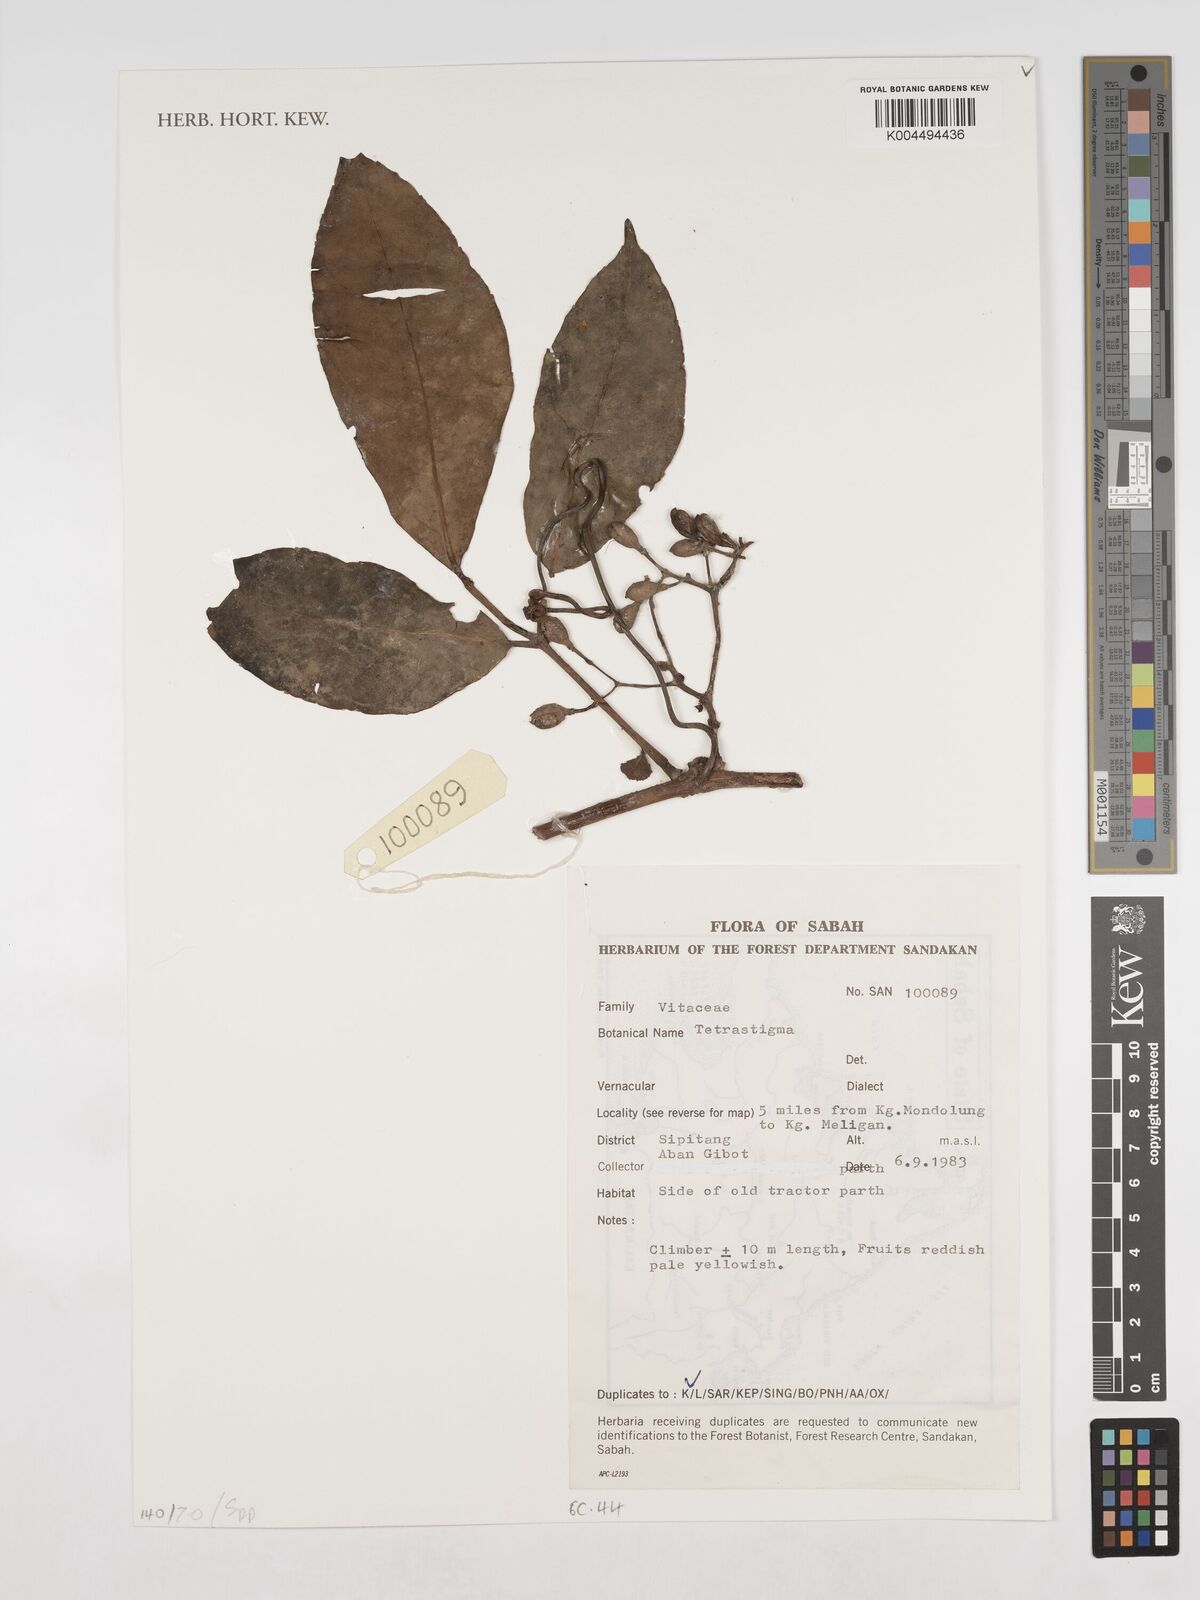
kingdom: Plantae
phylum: Tracheophyta
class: Magnoliopsida
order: Vitales
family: Vitaceae
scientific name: Vitaceae
